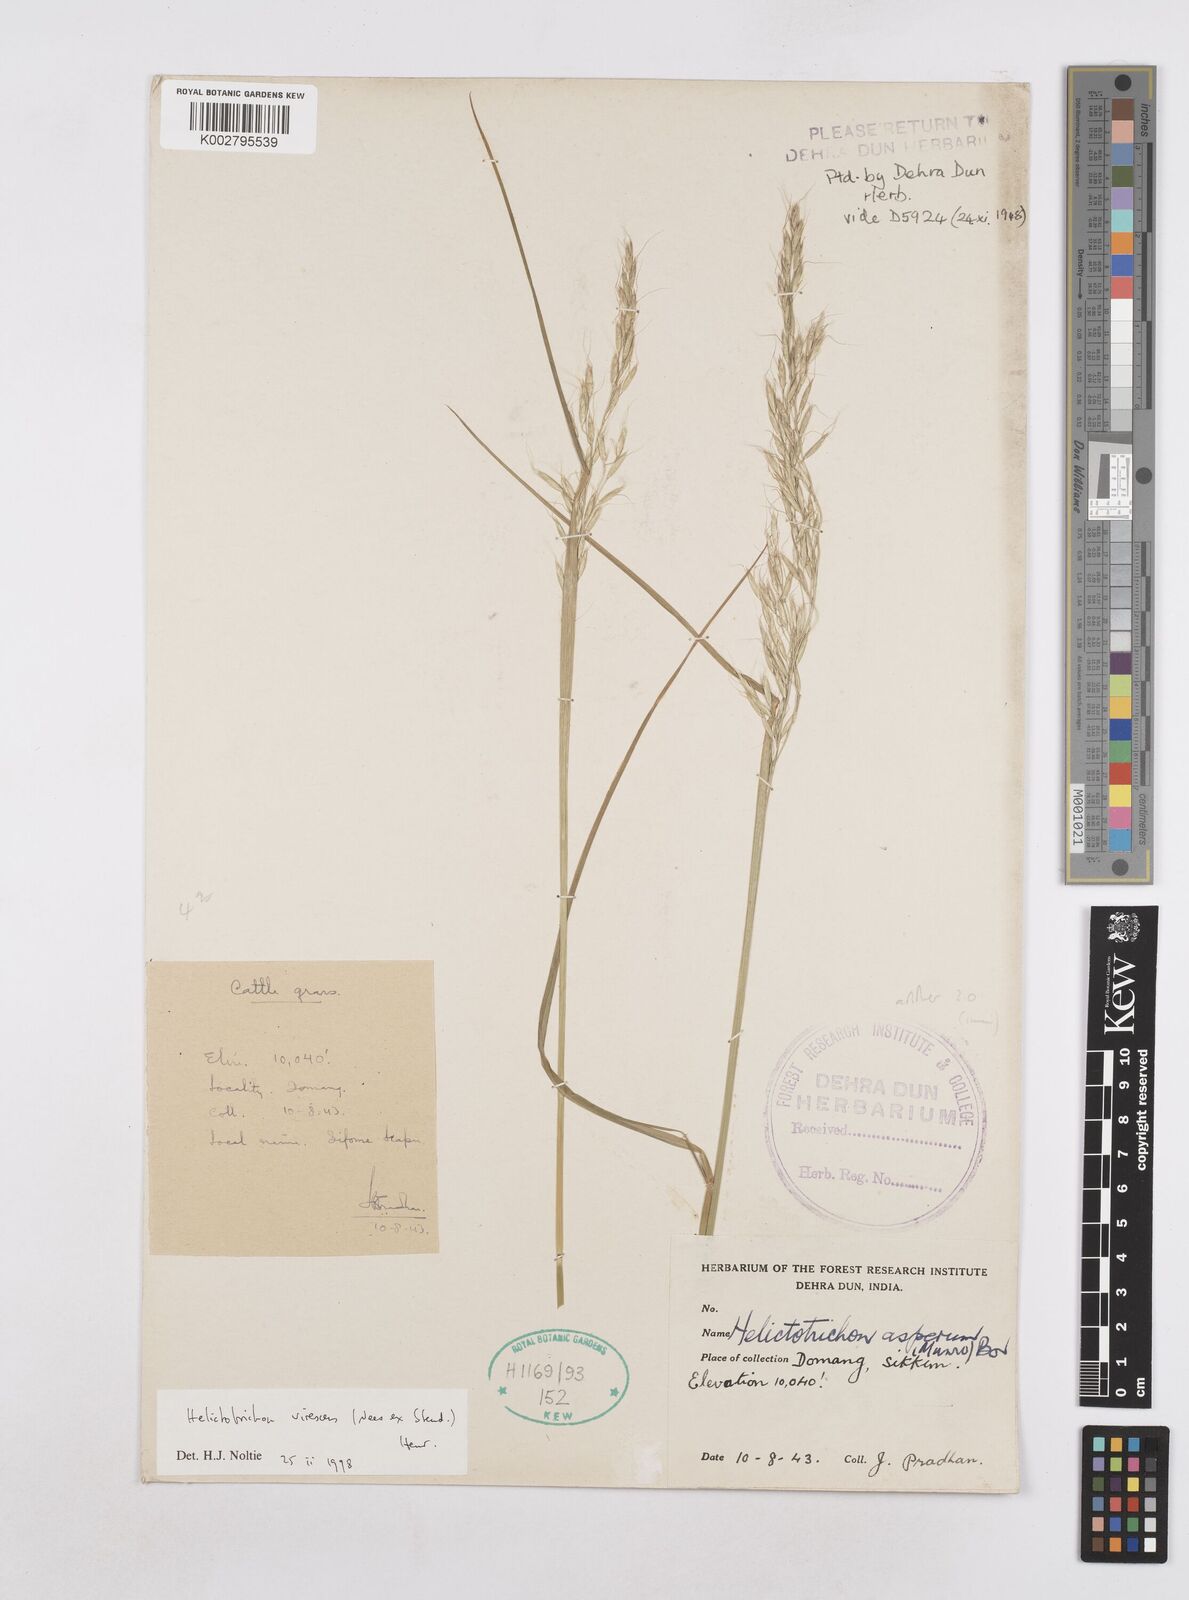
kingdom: Plantae
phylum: Tracheophyta
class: Liliopsida
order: Poales
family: Poaceae
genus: Trisetopsis
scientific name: Trisetopsis junghuhnii
